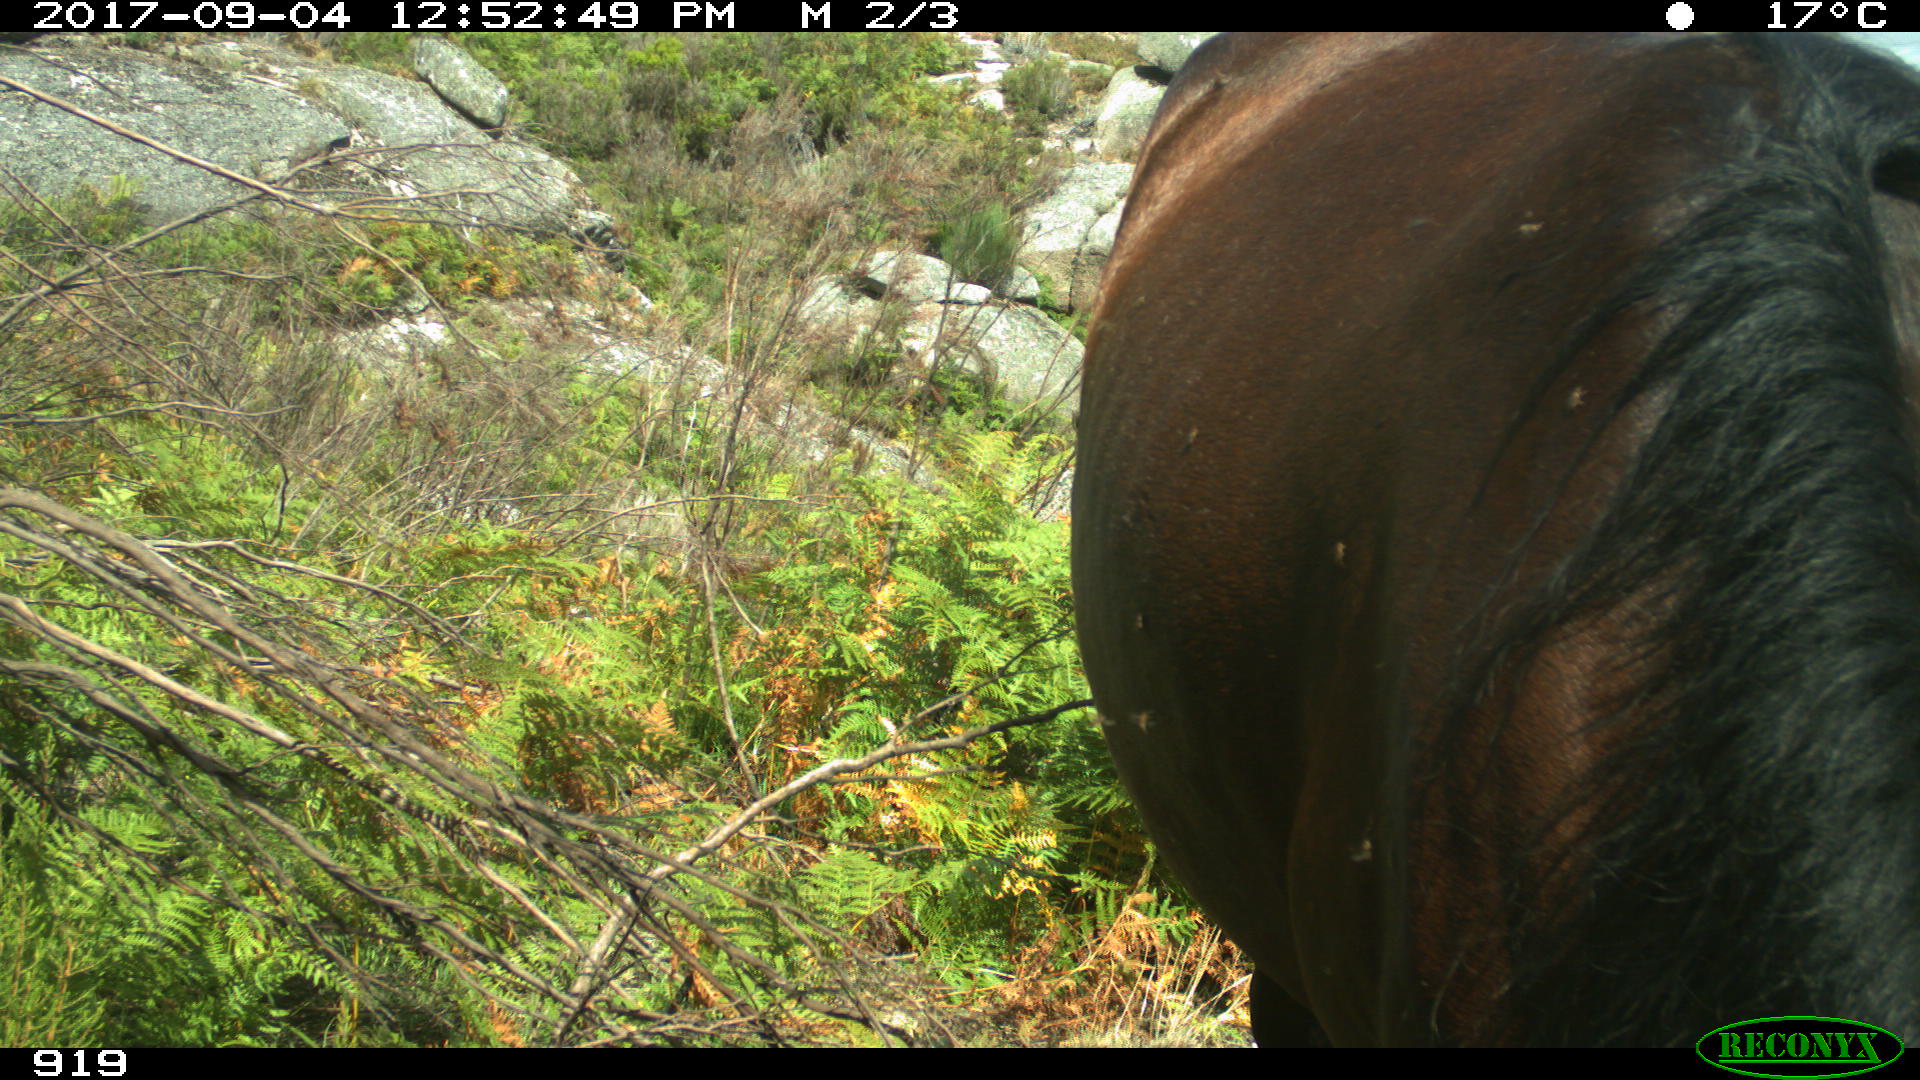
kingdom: Animalia
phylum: Chordata
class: Mammalia
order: Perissodactyla
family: Equidae
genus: Equus
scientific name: Equus caballus
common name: Horse
